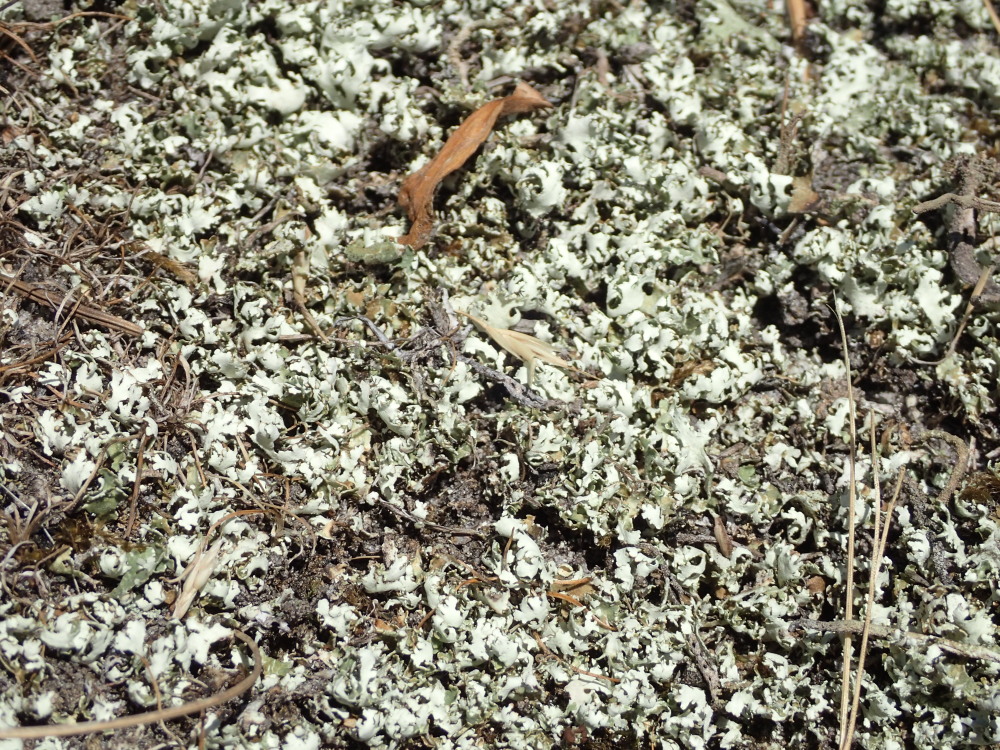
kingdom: Fungi
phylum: Ascomycota
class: Lecanoromycetes
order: Lecanorales
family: Cladoniaceae
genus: Cladonia
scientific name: Cladonia foliacea
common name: fliget bægerlav
